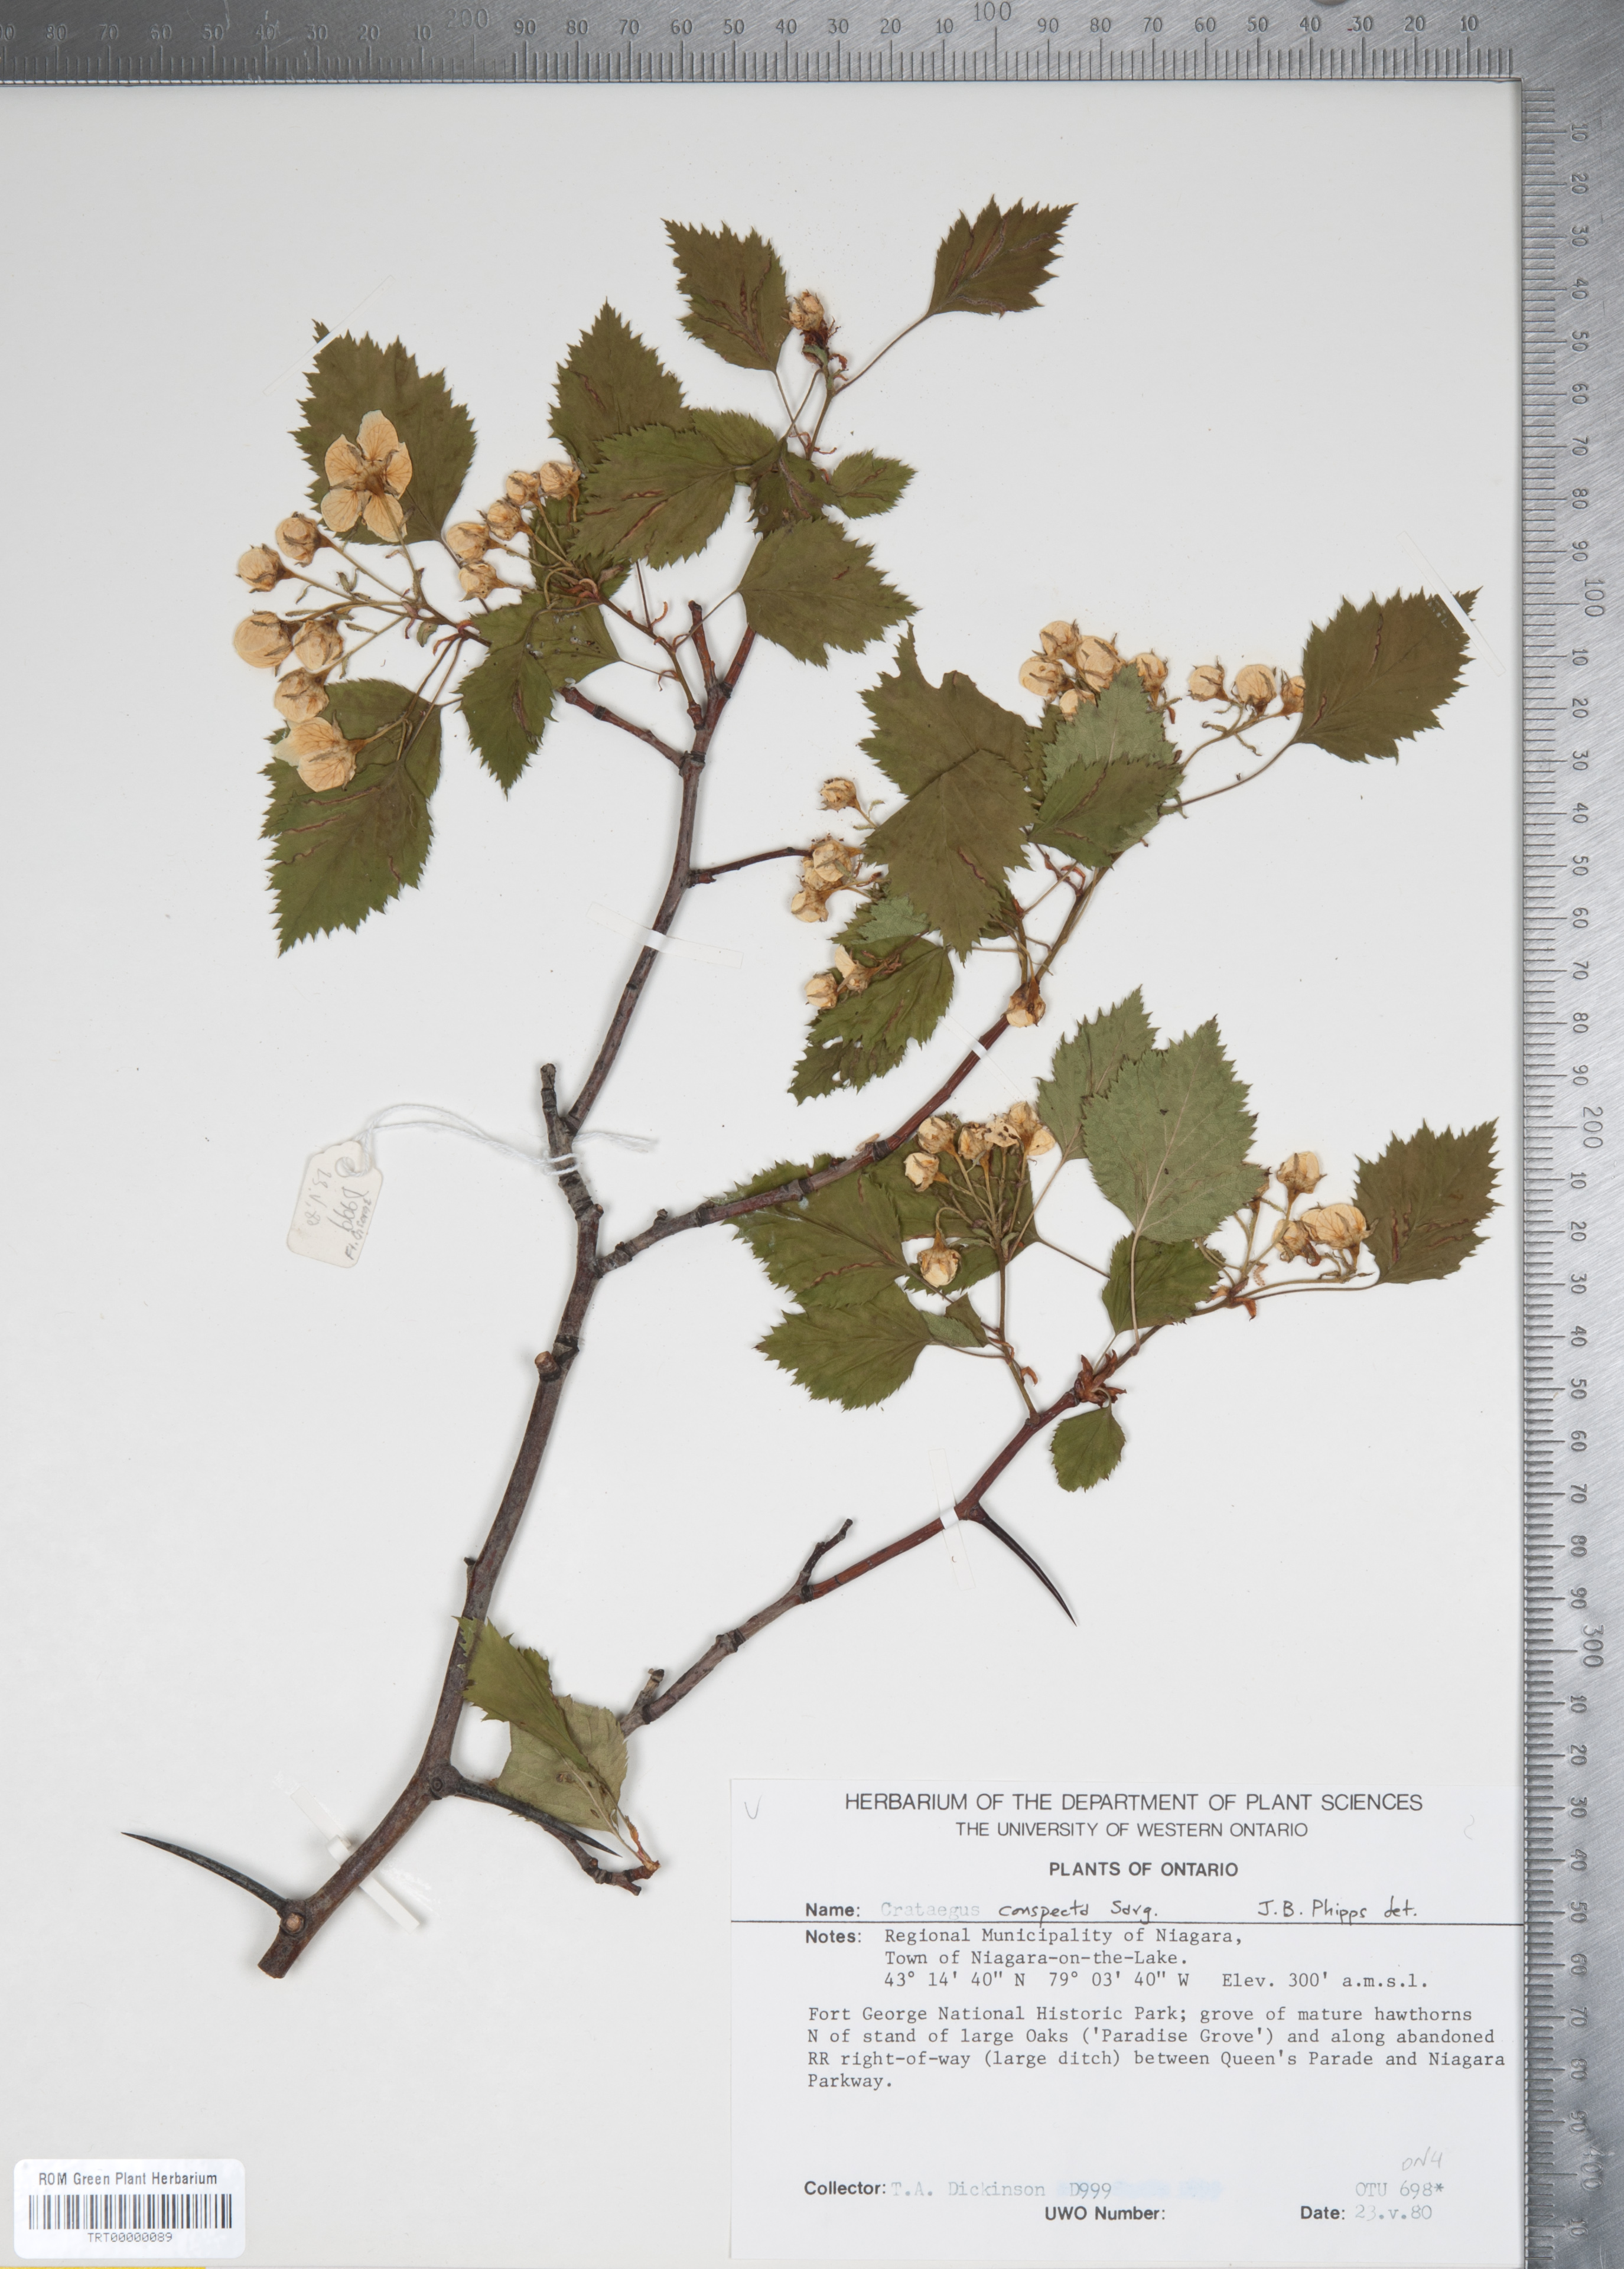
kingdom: Plantae
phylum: Tracheophyta
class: Magnoliopsida
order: Rosales
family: Rosaceae
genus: Crataegus
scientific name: Crataegus coccinioides
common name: Large-flowered cockspurthorn
